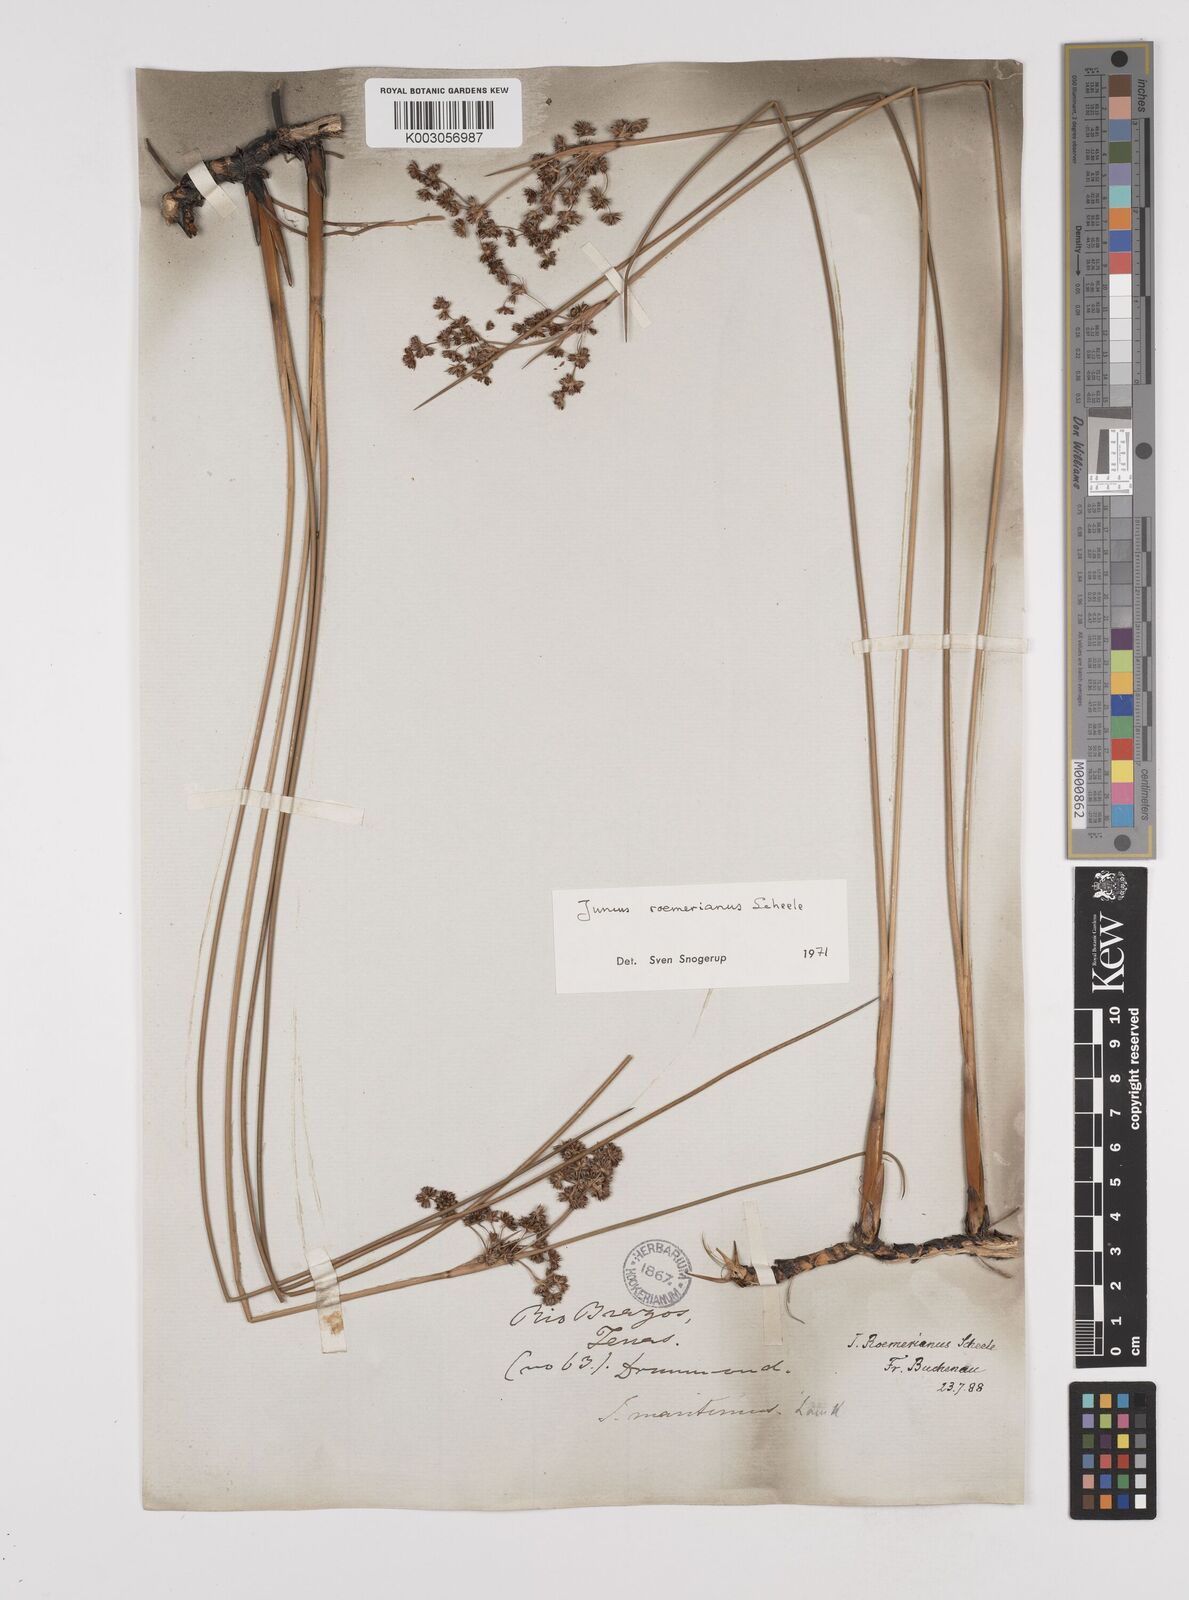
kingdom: Plantae
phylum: Tracheophyta
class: Liliopsida
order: Poales
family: Juncaceae
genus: Juncus
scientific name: Juncus roemerianus
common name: Roemer's rush
